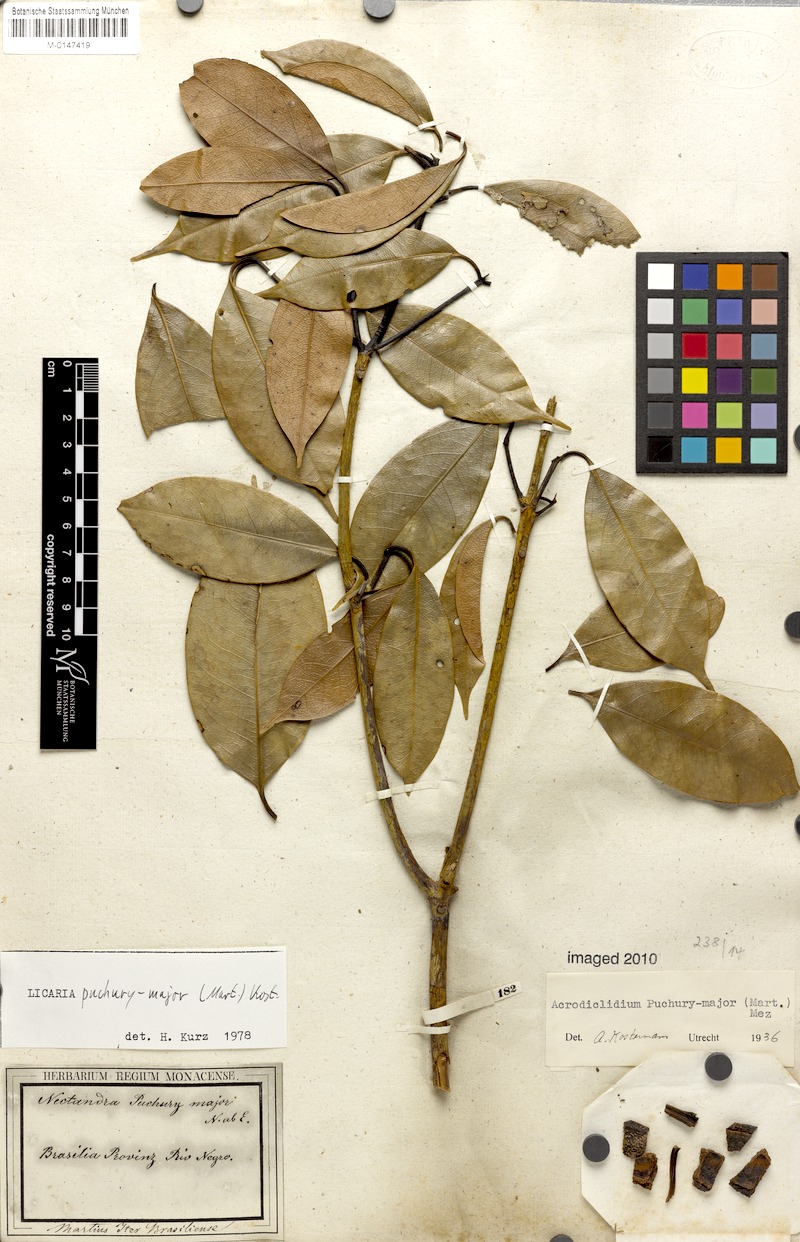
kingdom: Plantae
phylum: Tracheophyta
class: Magnoliopsida
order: Laurales
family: Lauraceae
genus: Aniba
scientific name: Aniba puchury-minor
